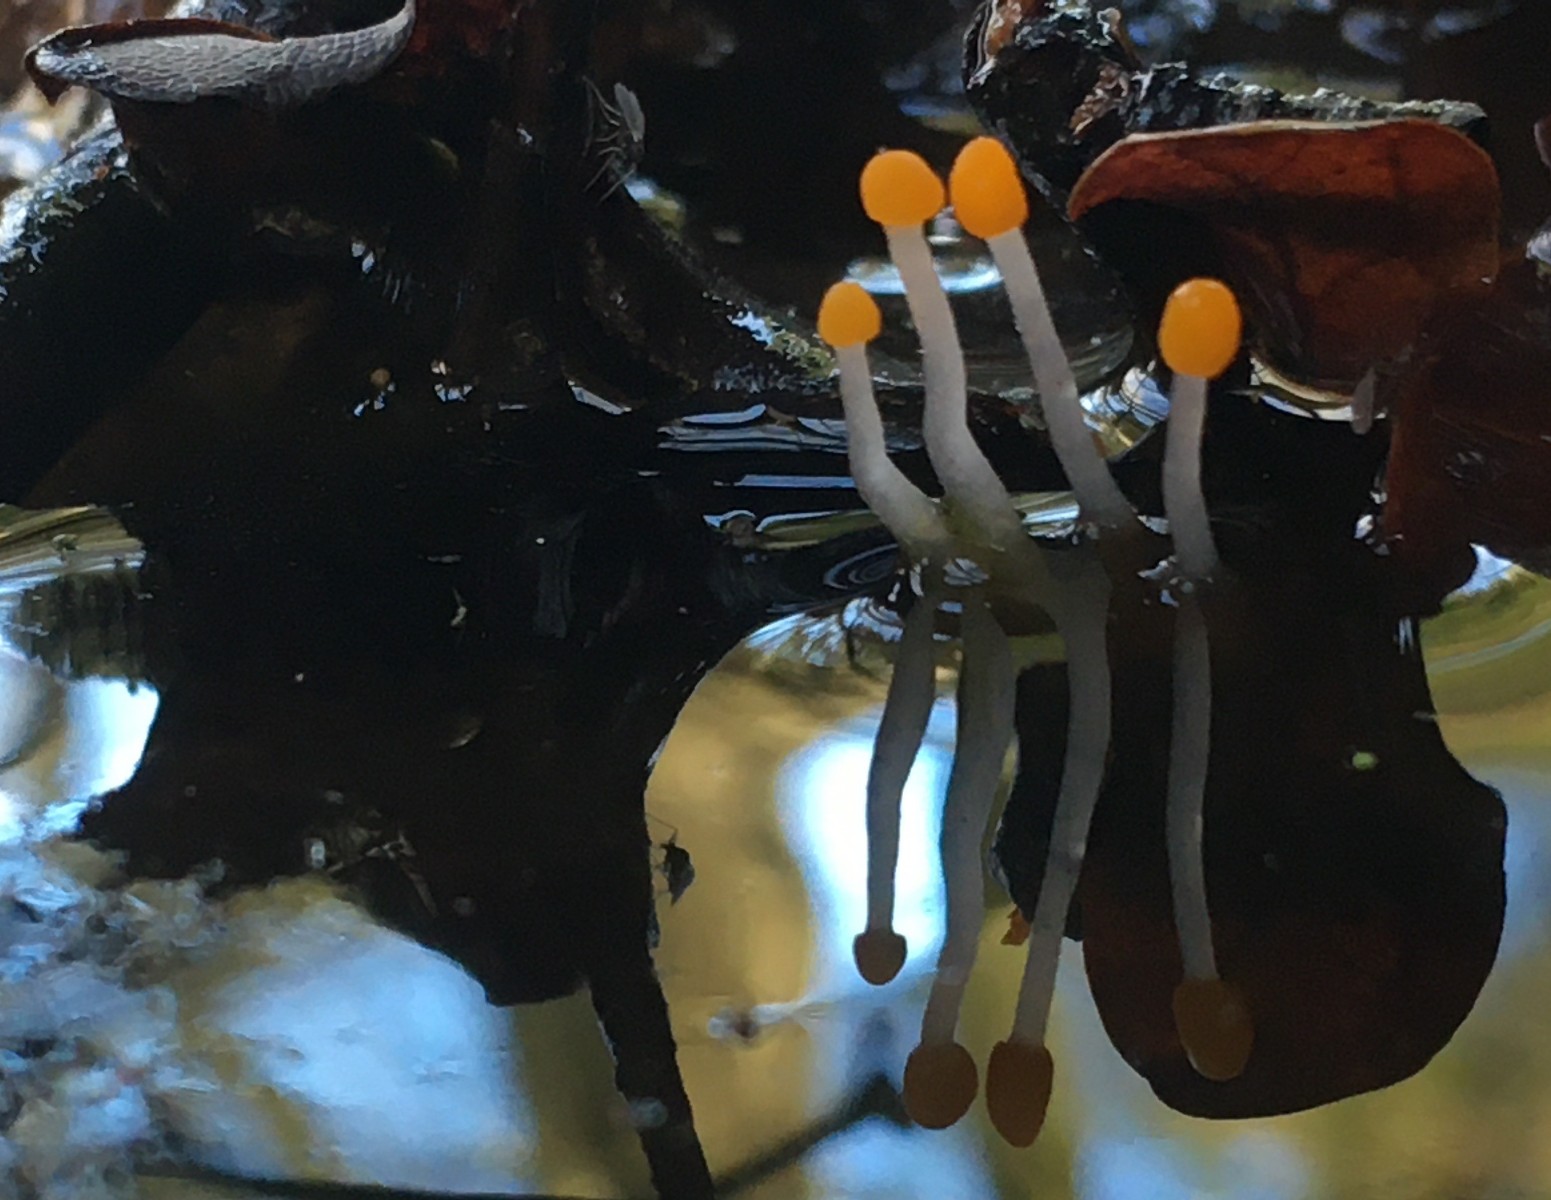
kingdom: Fungi
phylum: Ascomycota
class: Leotiomycetes
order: Helotiales
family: Cenangiaceae
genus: Mitrula
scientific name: Mitrula paludosa
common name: gul nøkketunge
